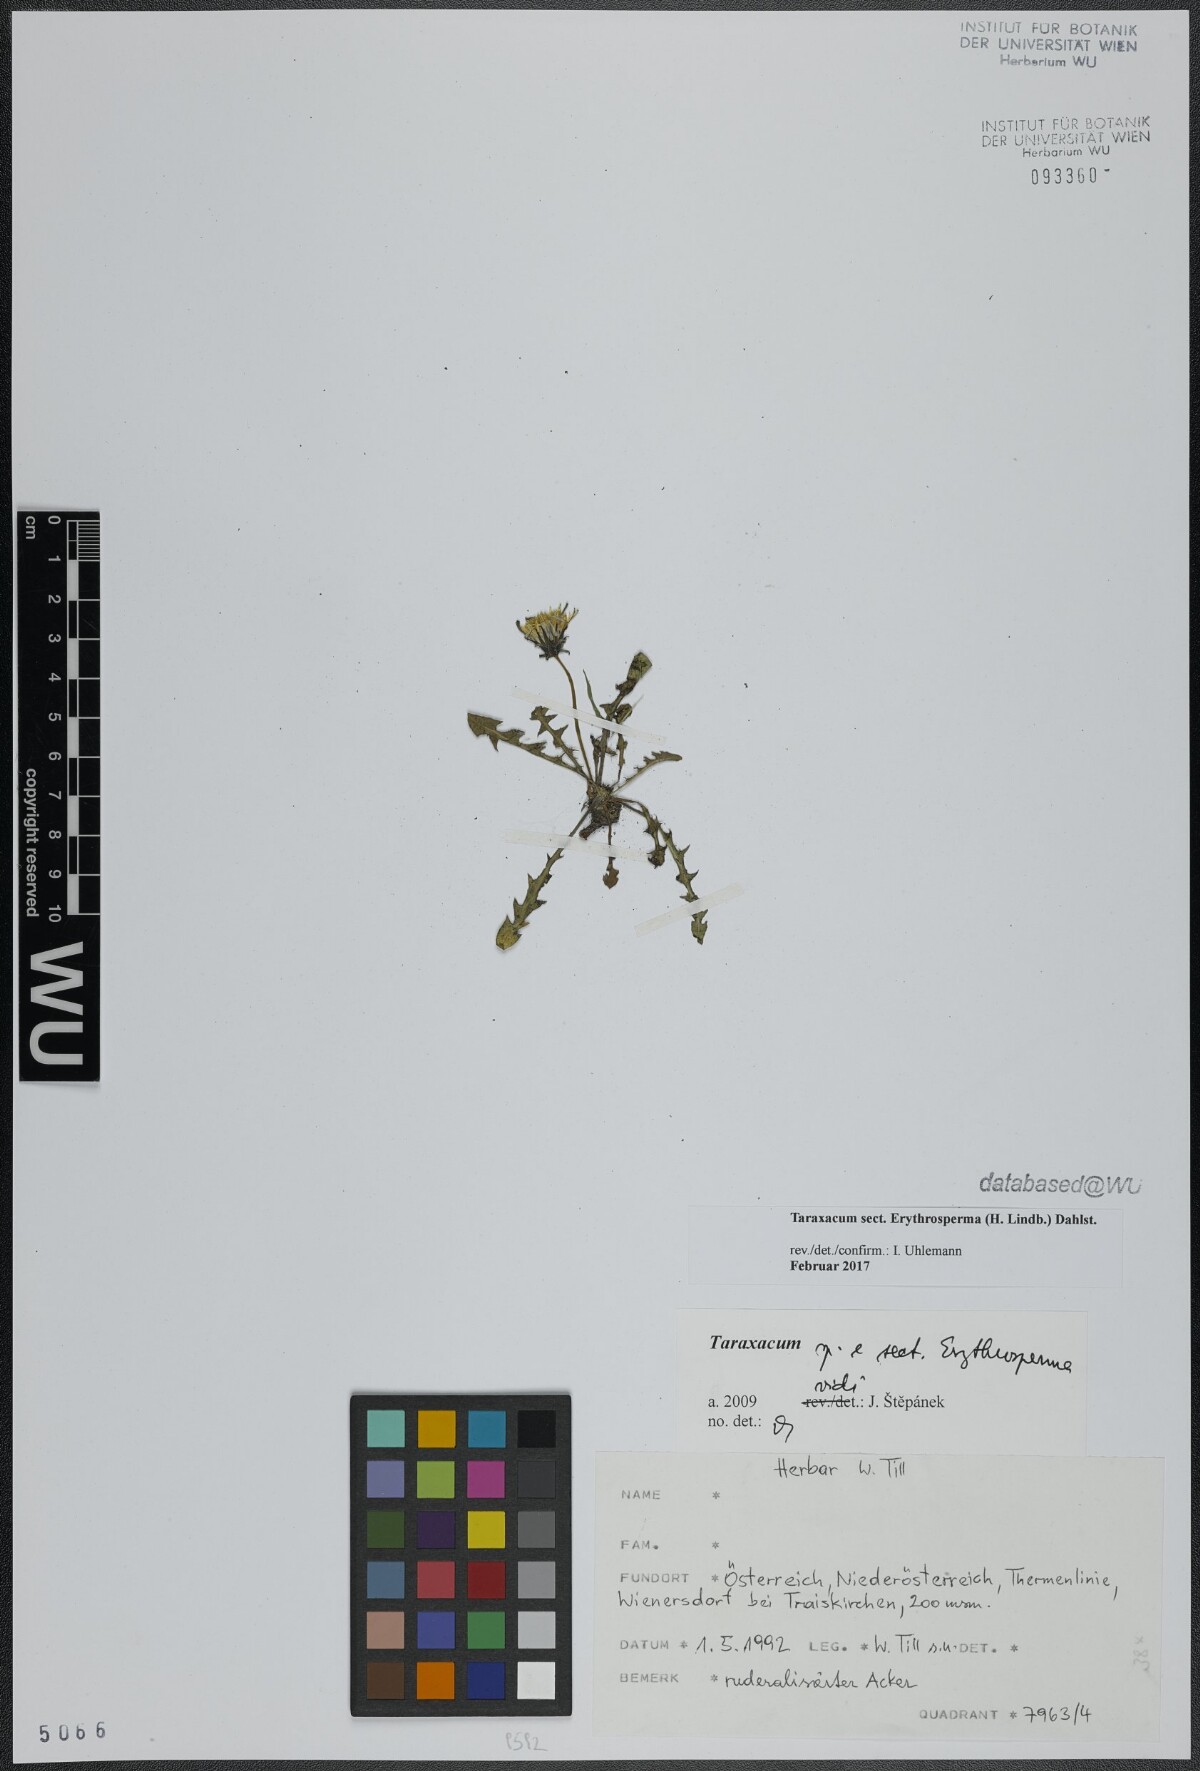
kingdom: Plantae
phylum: Tracheophyta
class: Magnoliopsida
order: Asterales
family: Asteraceae
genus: Taraxacum
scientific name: Taraxacum
